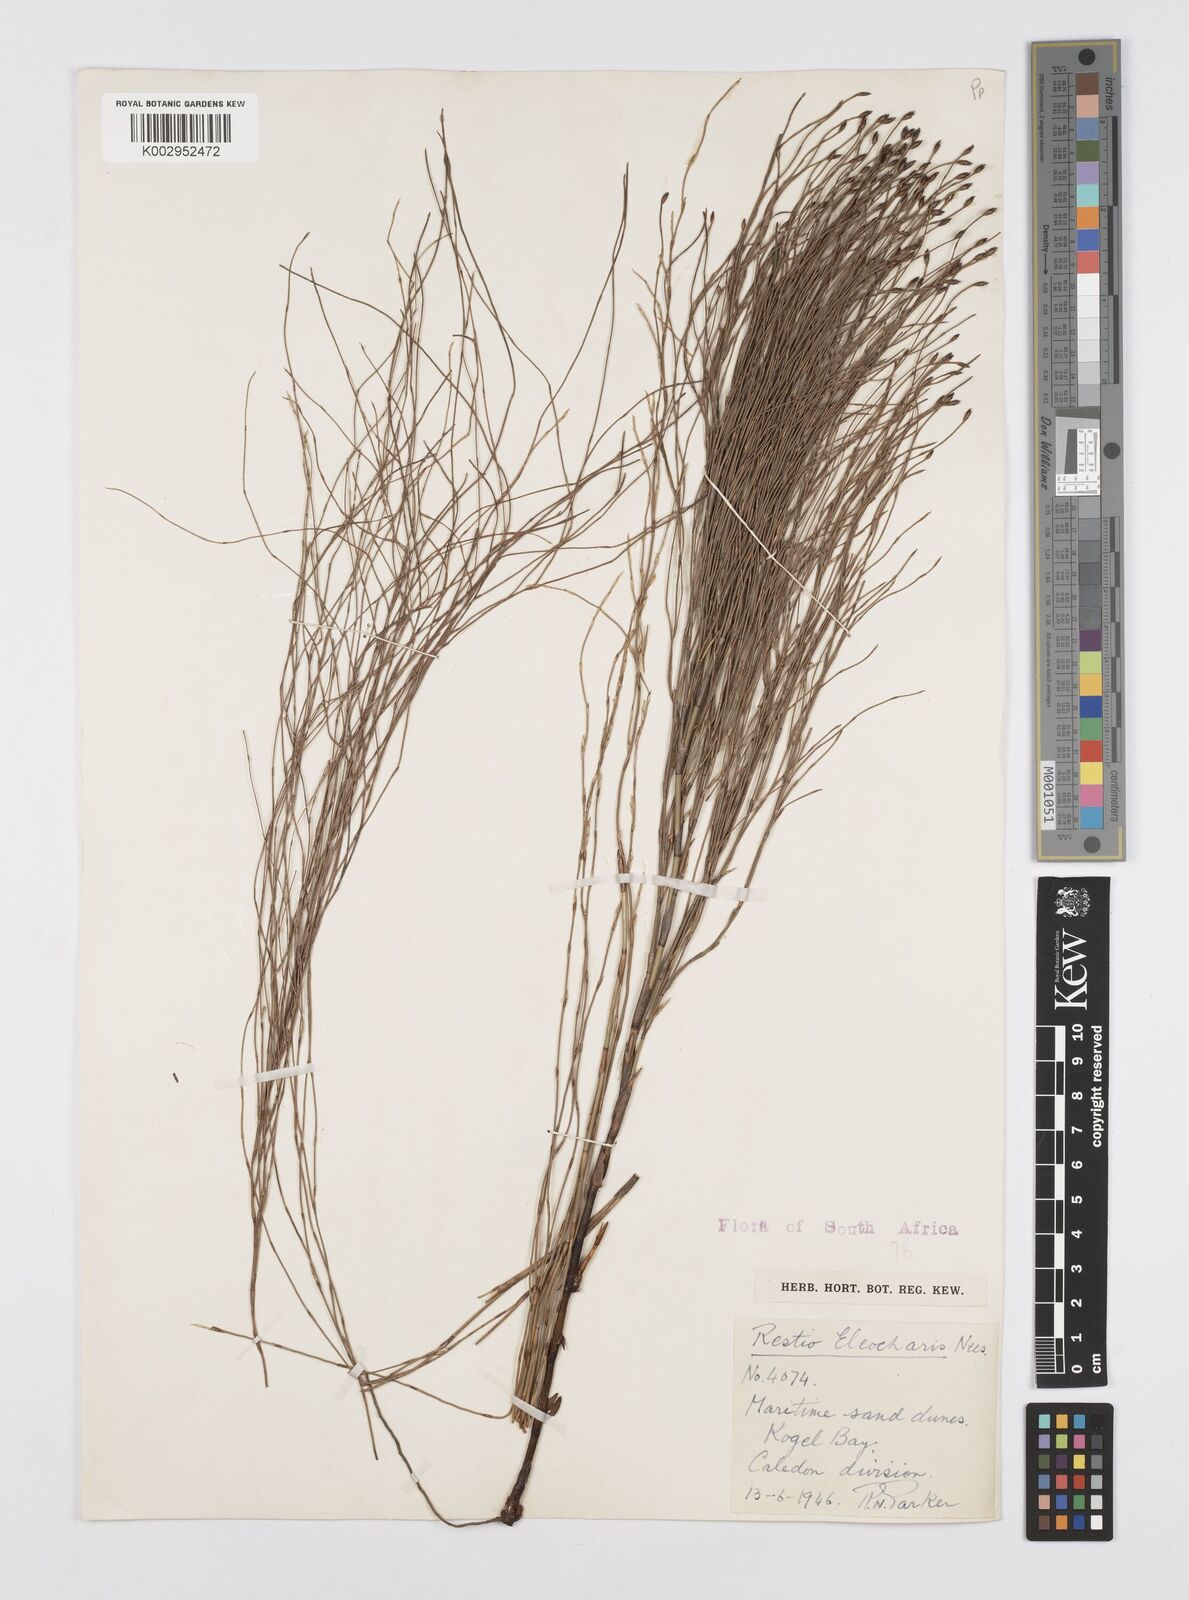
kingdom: Plantae
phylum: Tracheophyta
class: Liliopsida
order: Poales
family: Restionaceae
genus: Restio
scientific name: Restio eleocharis
